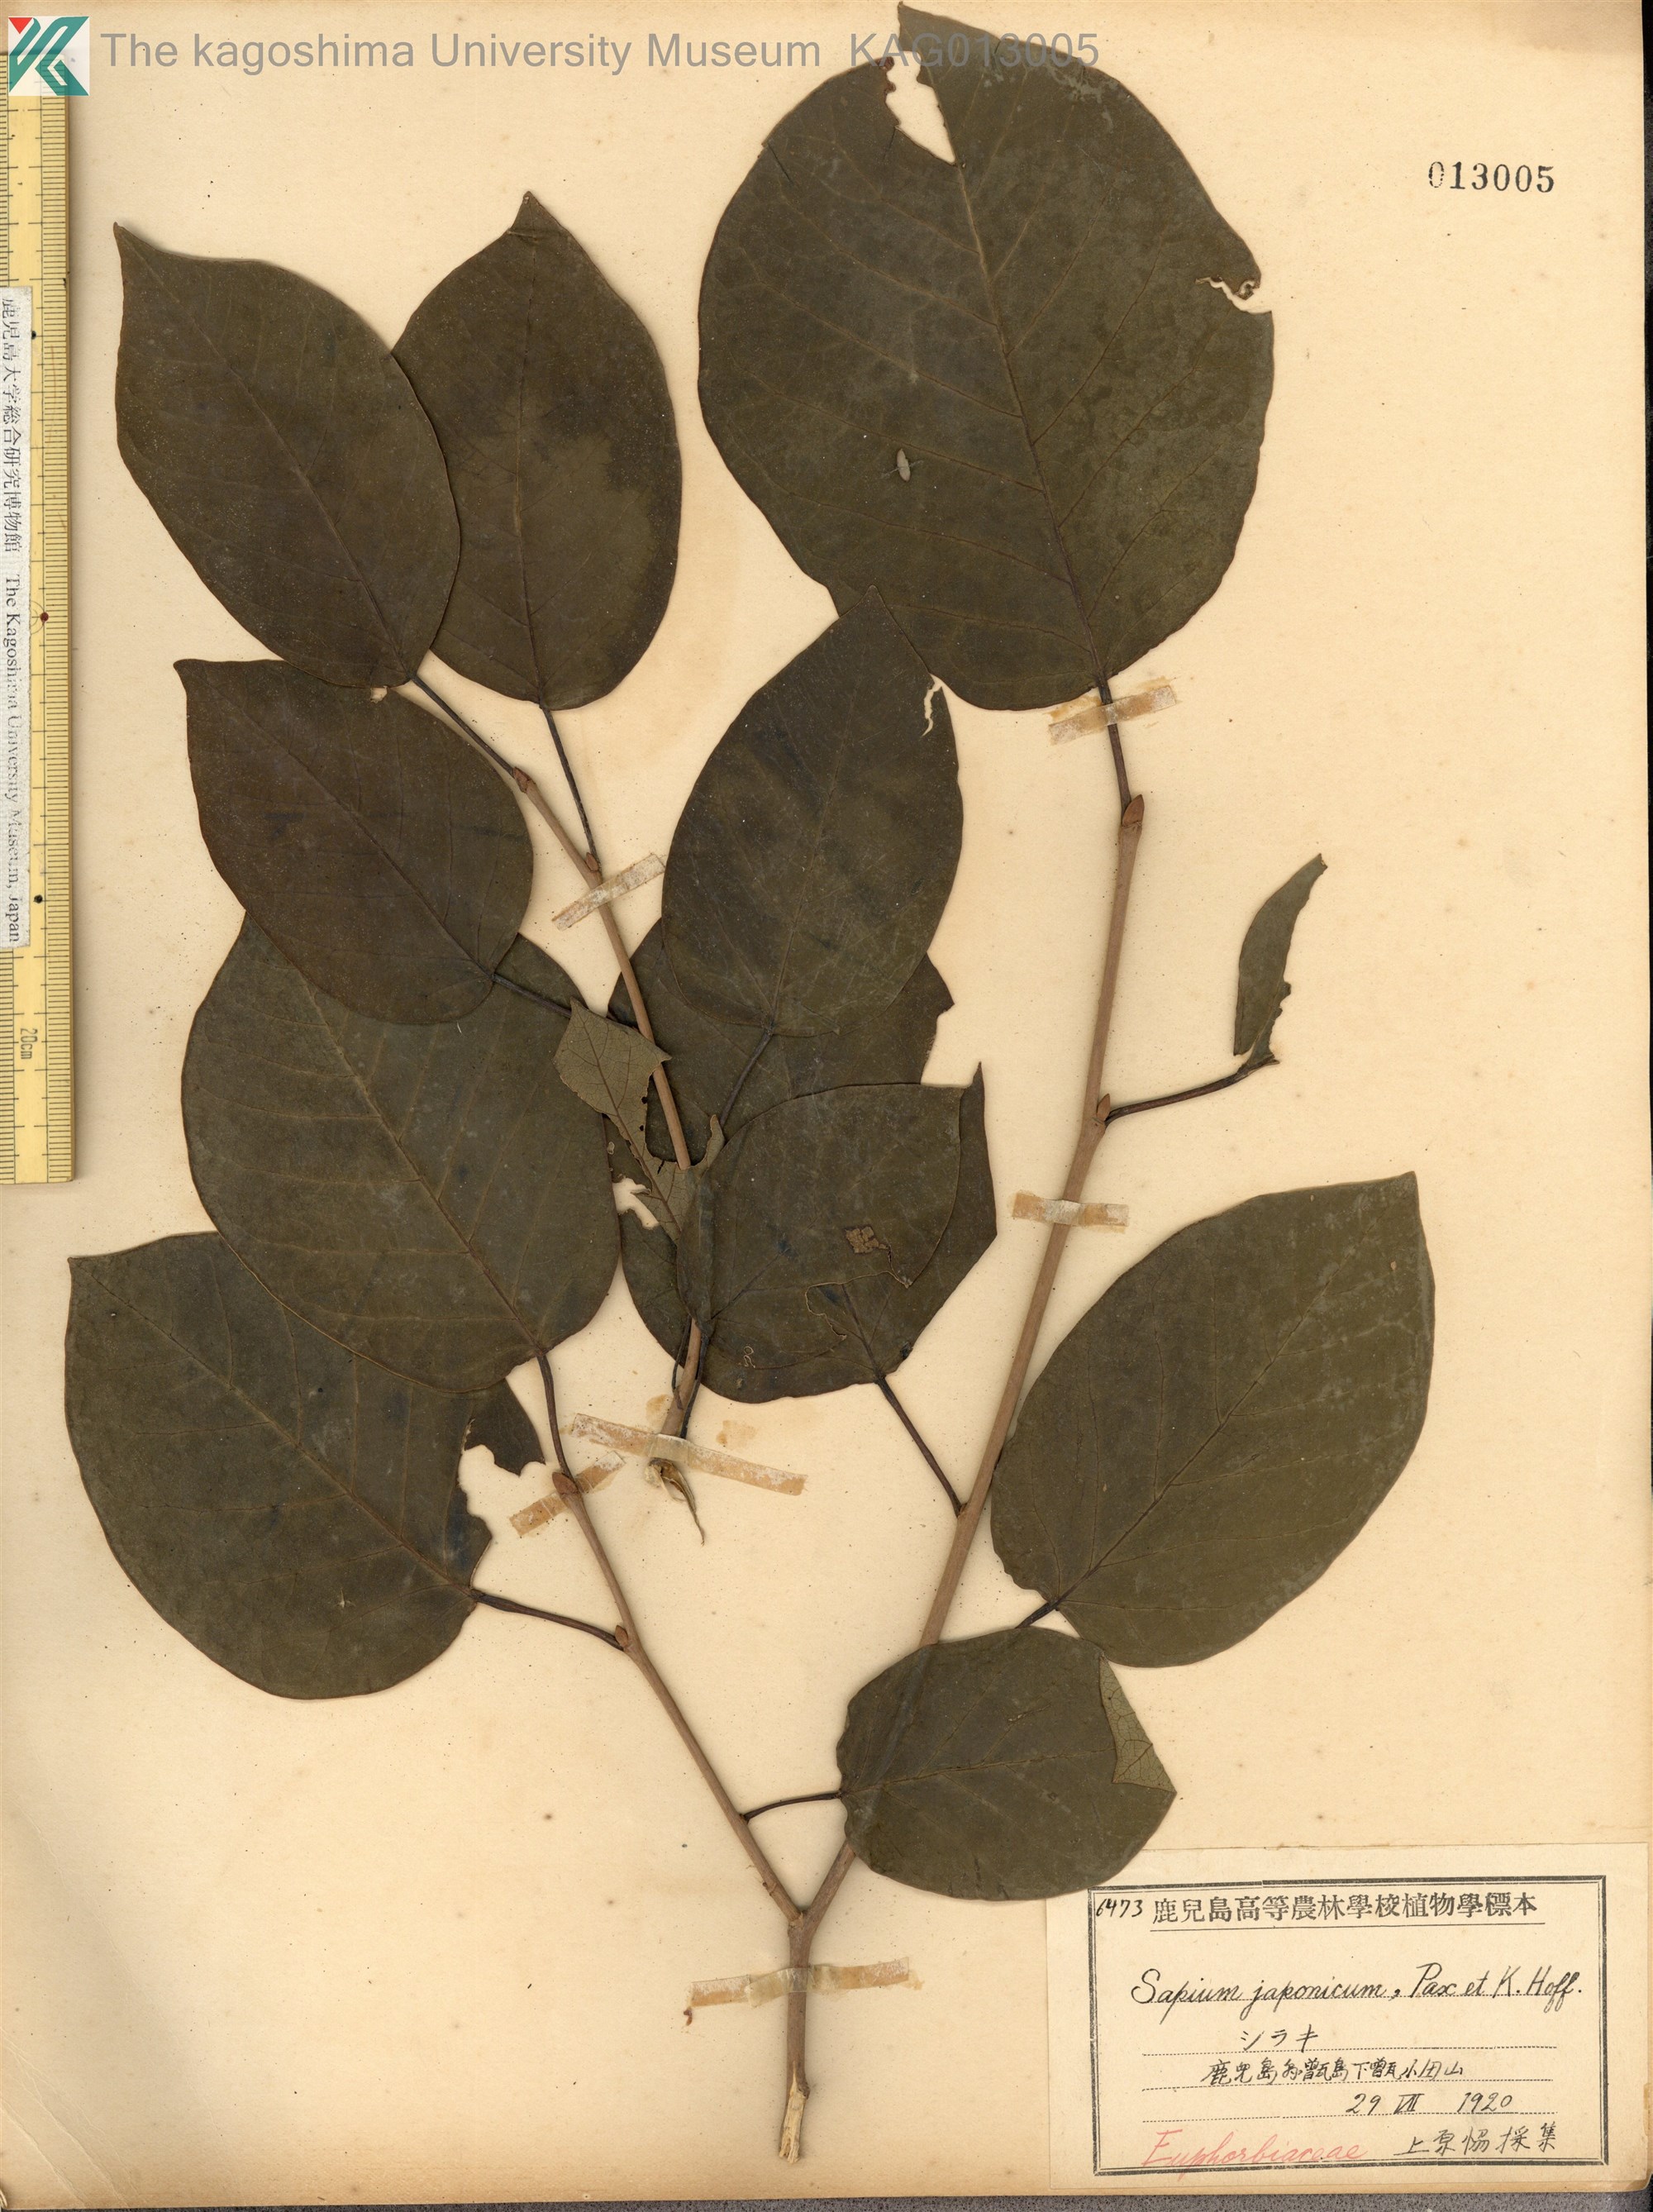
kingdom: Plantae
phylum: Tracheophyta
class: Magnoliopsida
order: Malpighiales
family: Euphorbiaceae
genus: Neoshirakia
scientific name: Neoshirakia japonica
